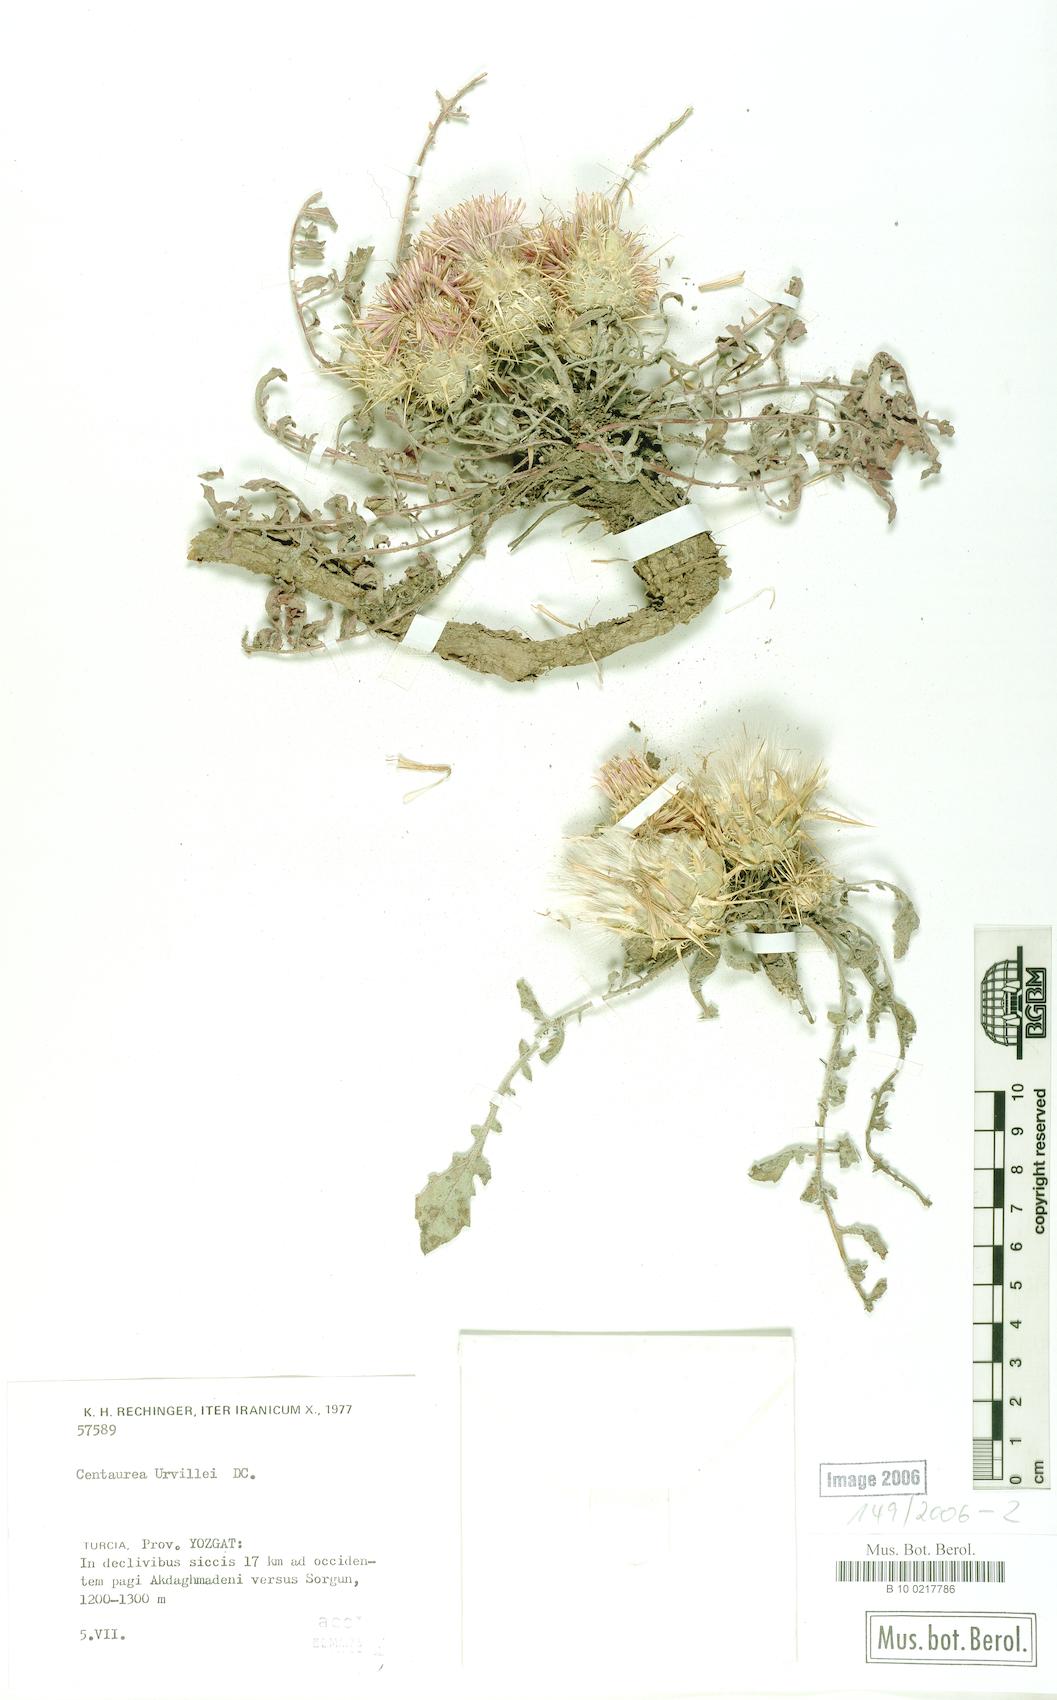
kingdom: Plantae
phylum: Tracheophyta
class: Magnoliopsida
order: Asterales
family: Asteraceae
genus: Centaurea
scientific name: Centaurea urvillei
